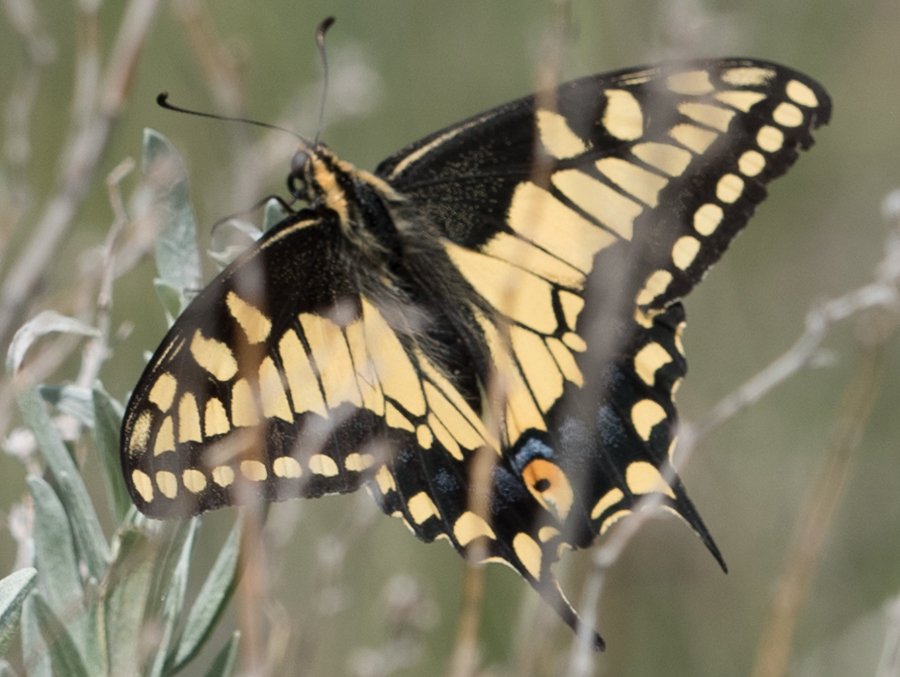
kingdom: Animalia
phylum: Arthropoda
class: Insecta
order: Lepidoptera
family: Papilionidae
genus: Papilio
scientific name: Papilio machaon
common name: Old World Swallowtail
